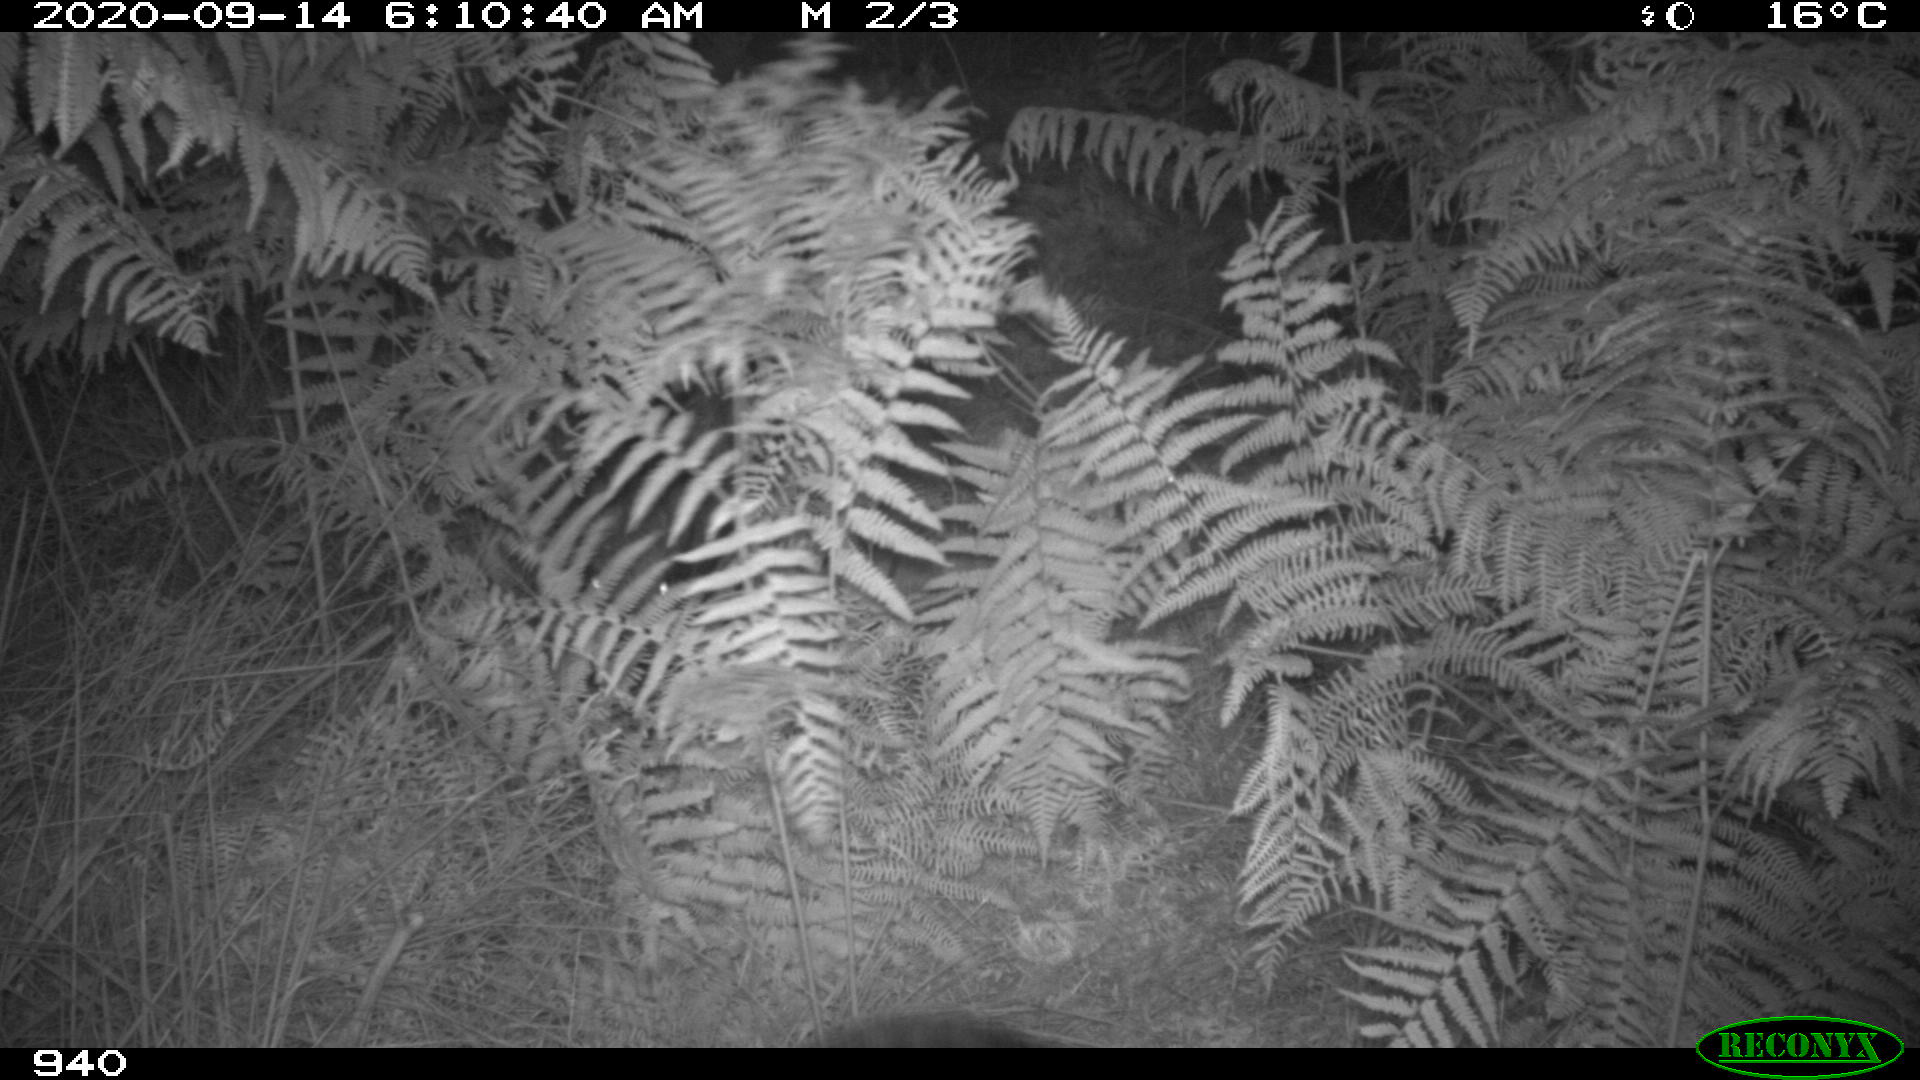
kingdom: Animalia
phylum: Chordata
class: Mammalia
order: Artiodactyla
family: Suidae
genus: Sus
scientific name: Sus scrofa
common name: Wild boar
